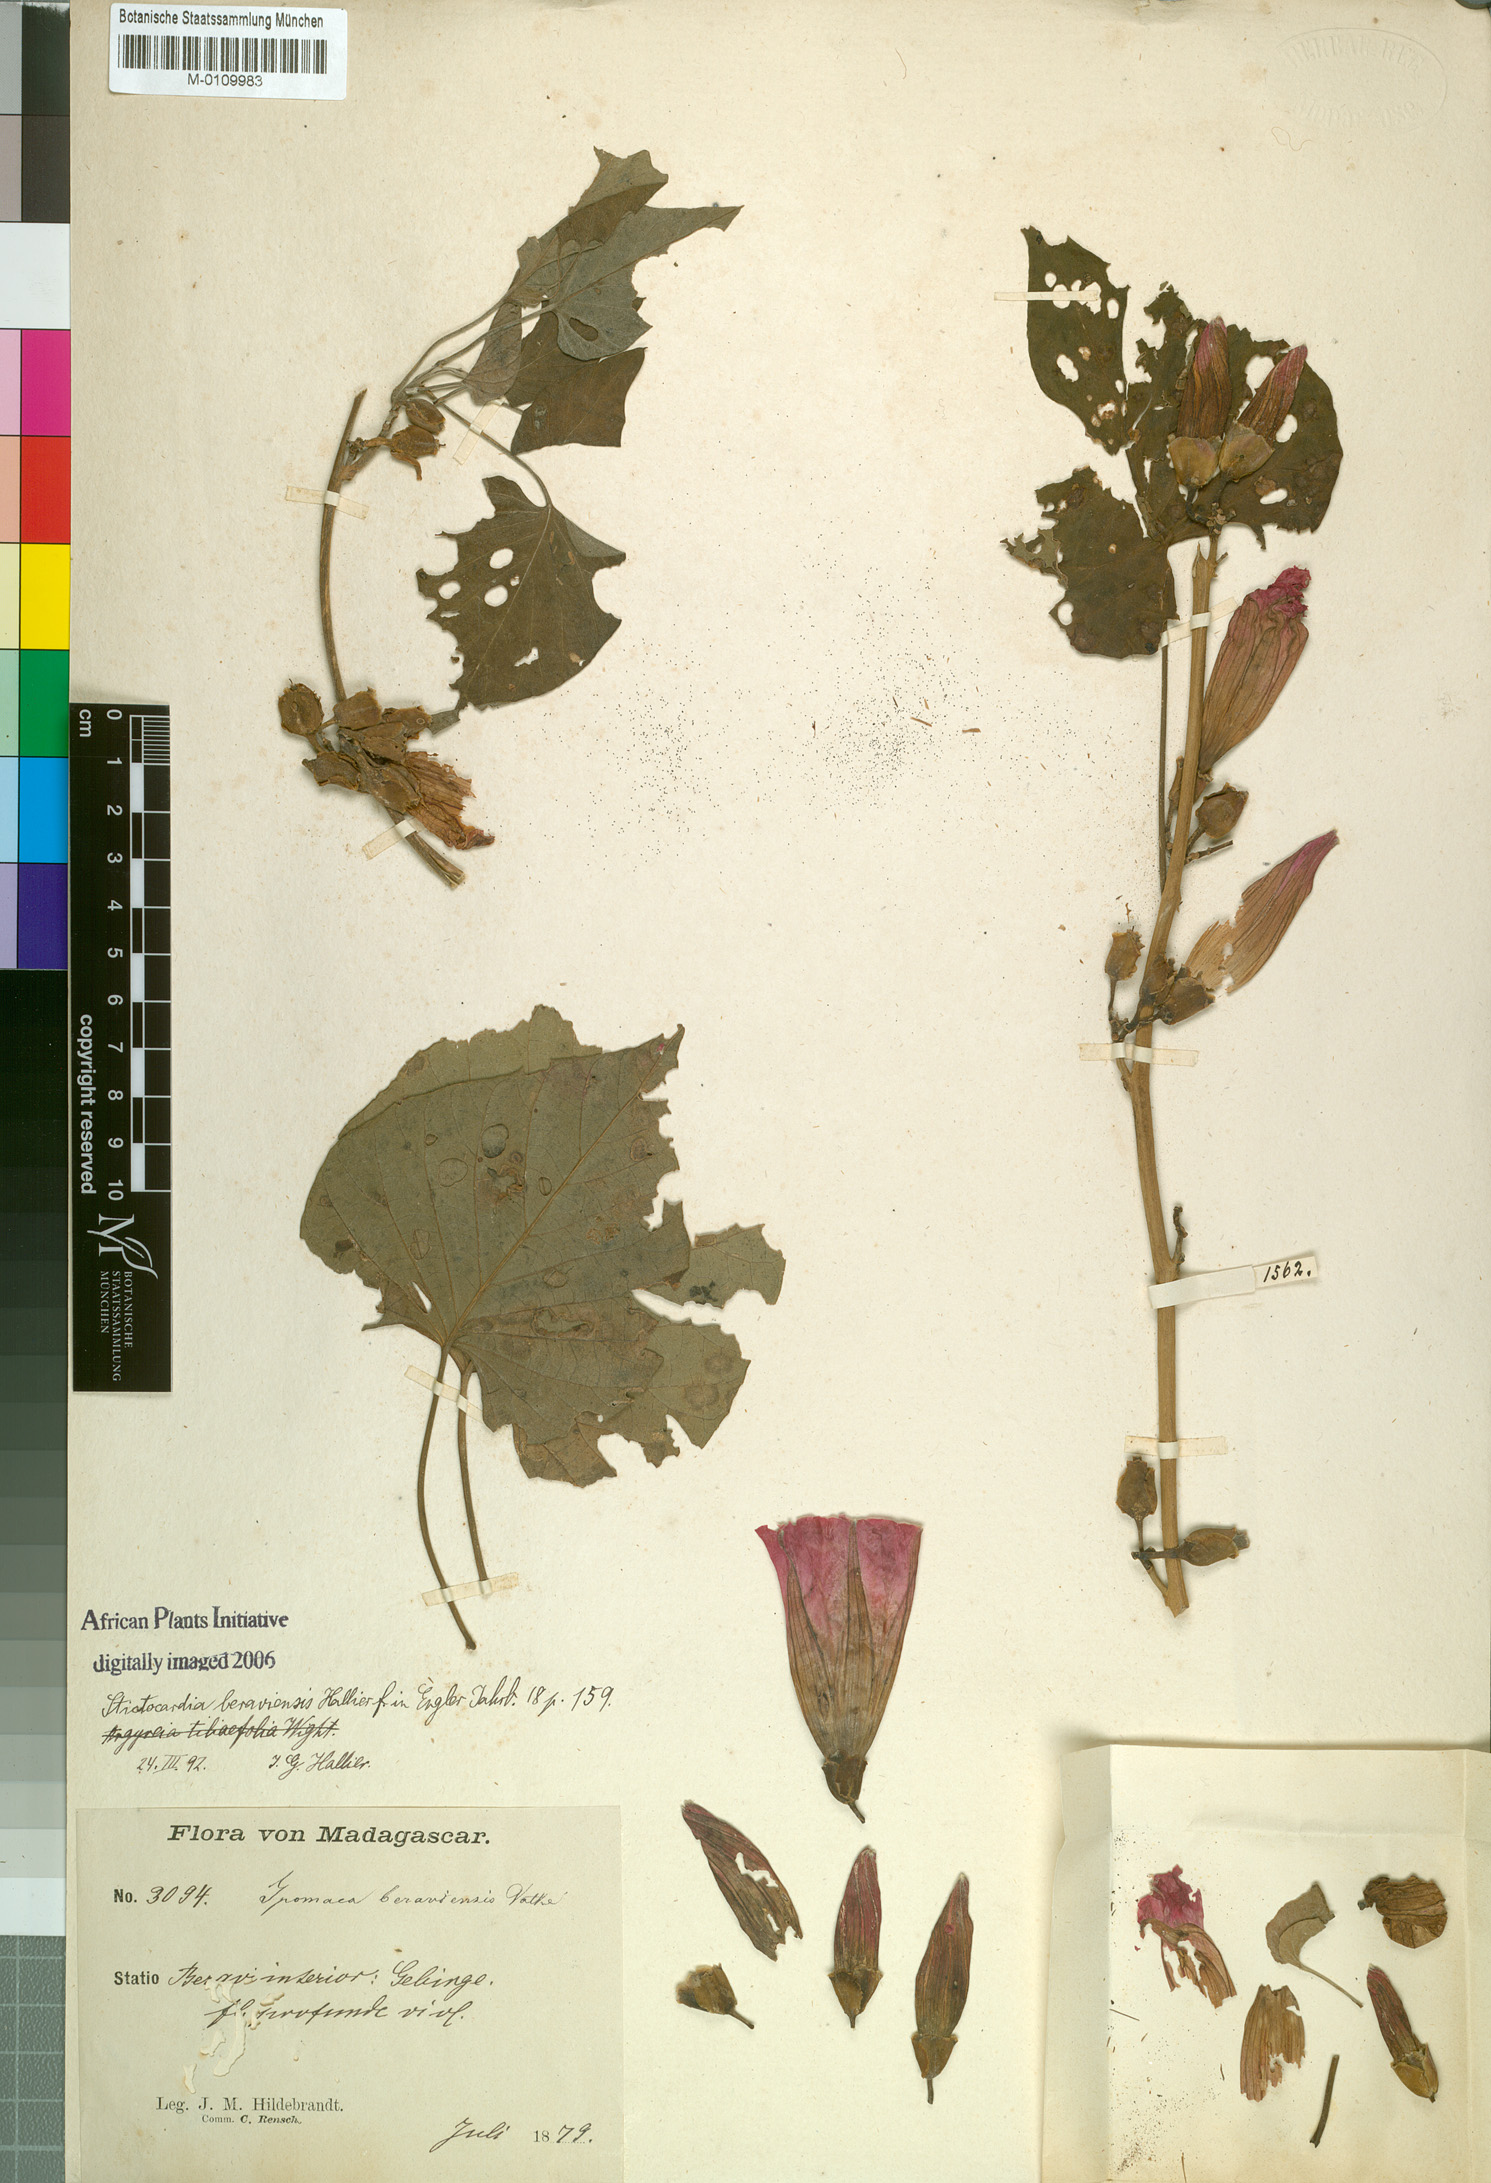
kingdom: Plantae
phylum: Tracheophyta
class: Magnoliopsida
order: Solanales
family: Convolvulaceae
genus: Stictocardia
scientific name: Stictocardia beraviensis
